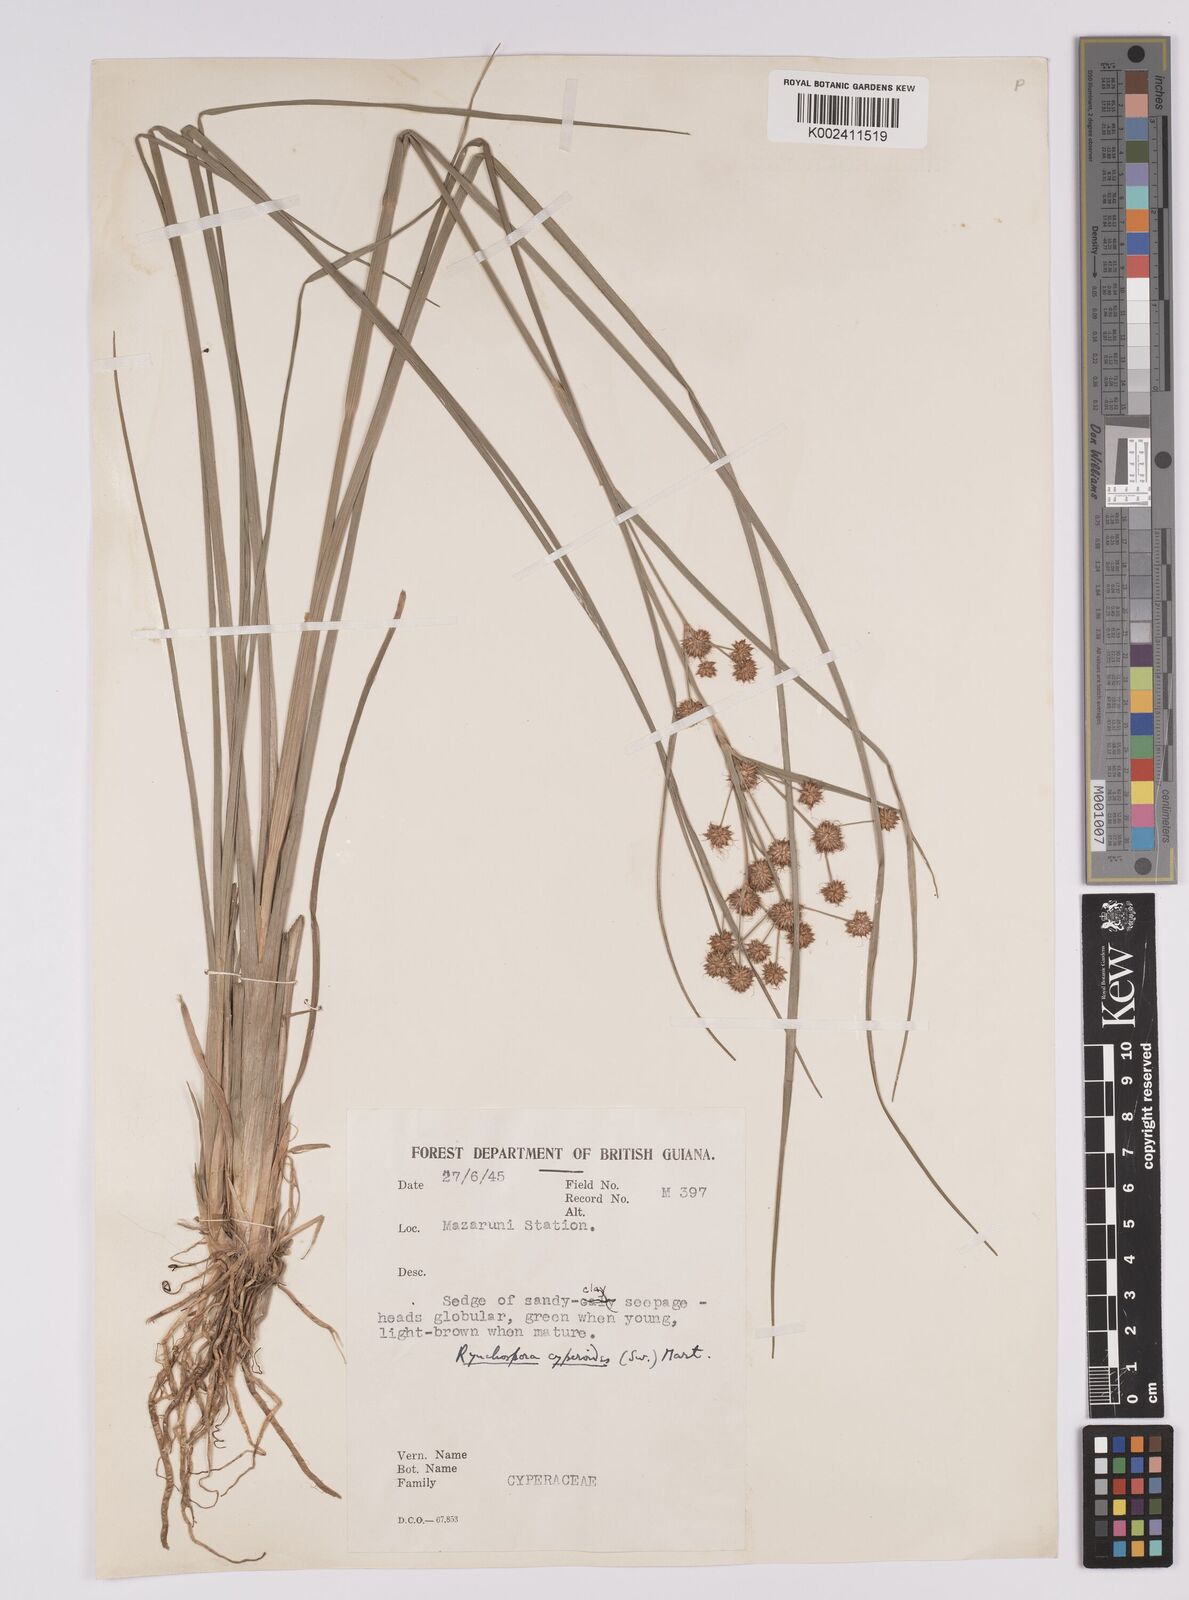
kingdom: Plantae
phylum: Tracheophyta
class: Liliopsida
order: Poales
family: Cyperaceae
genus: Rhynchospora
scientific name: Rhynchospora holoschoenoides
